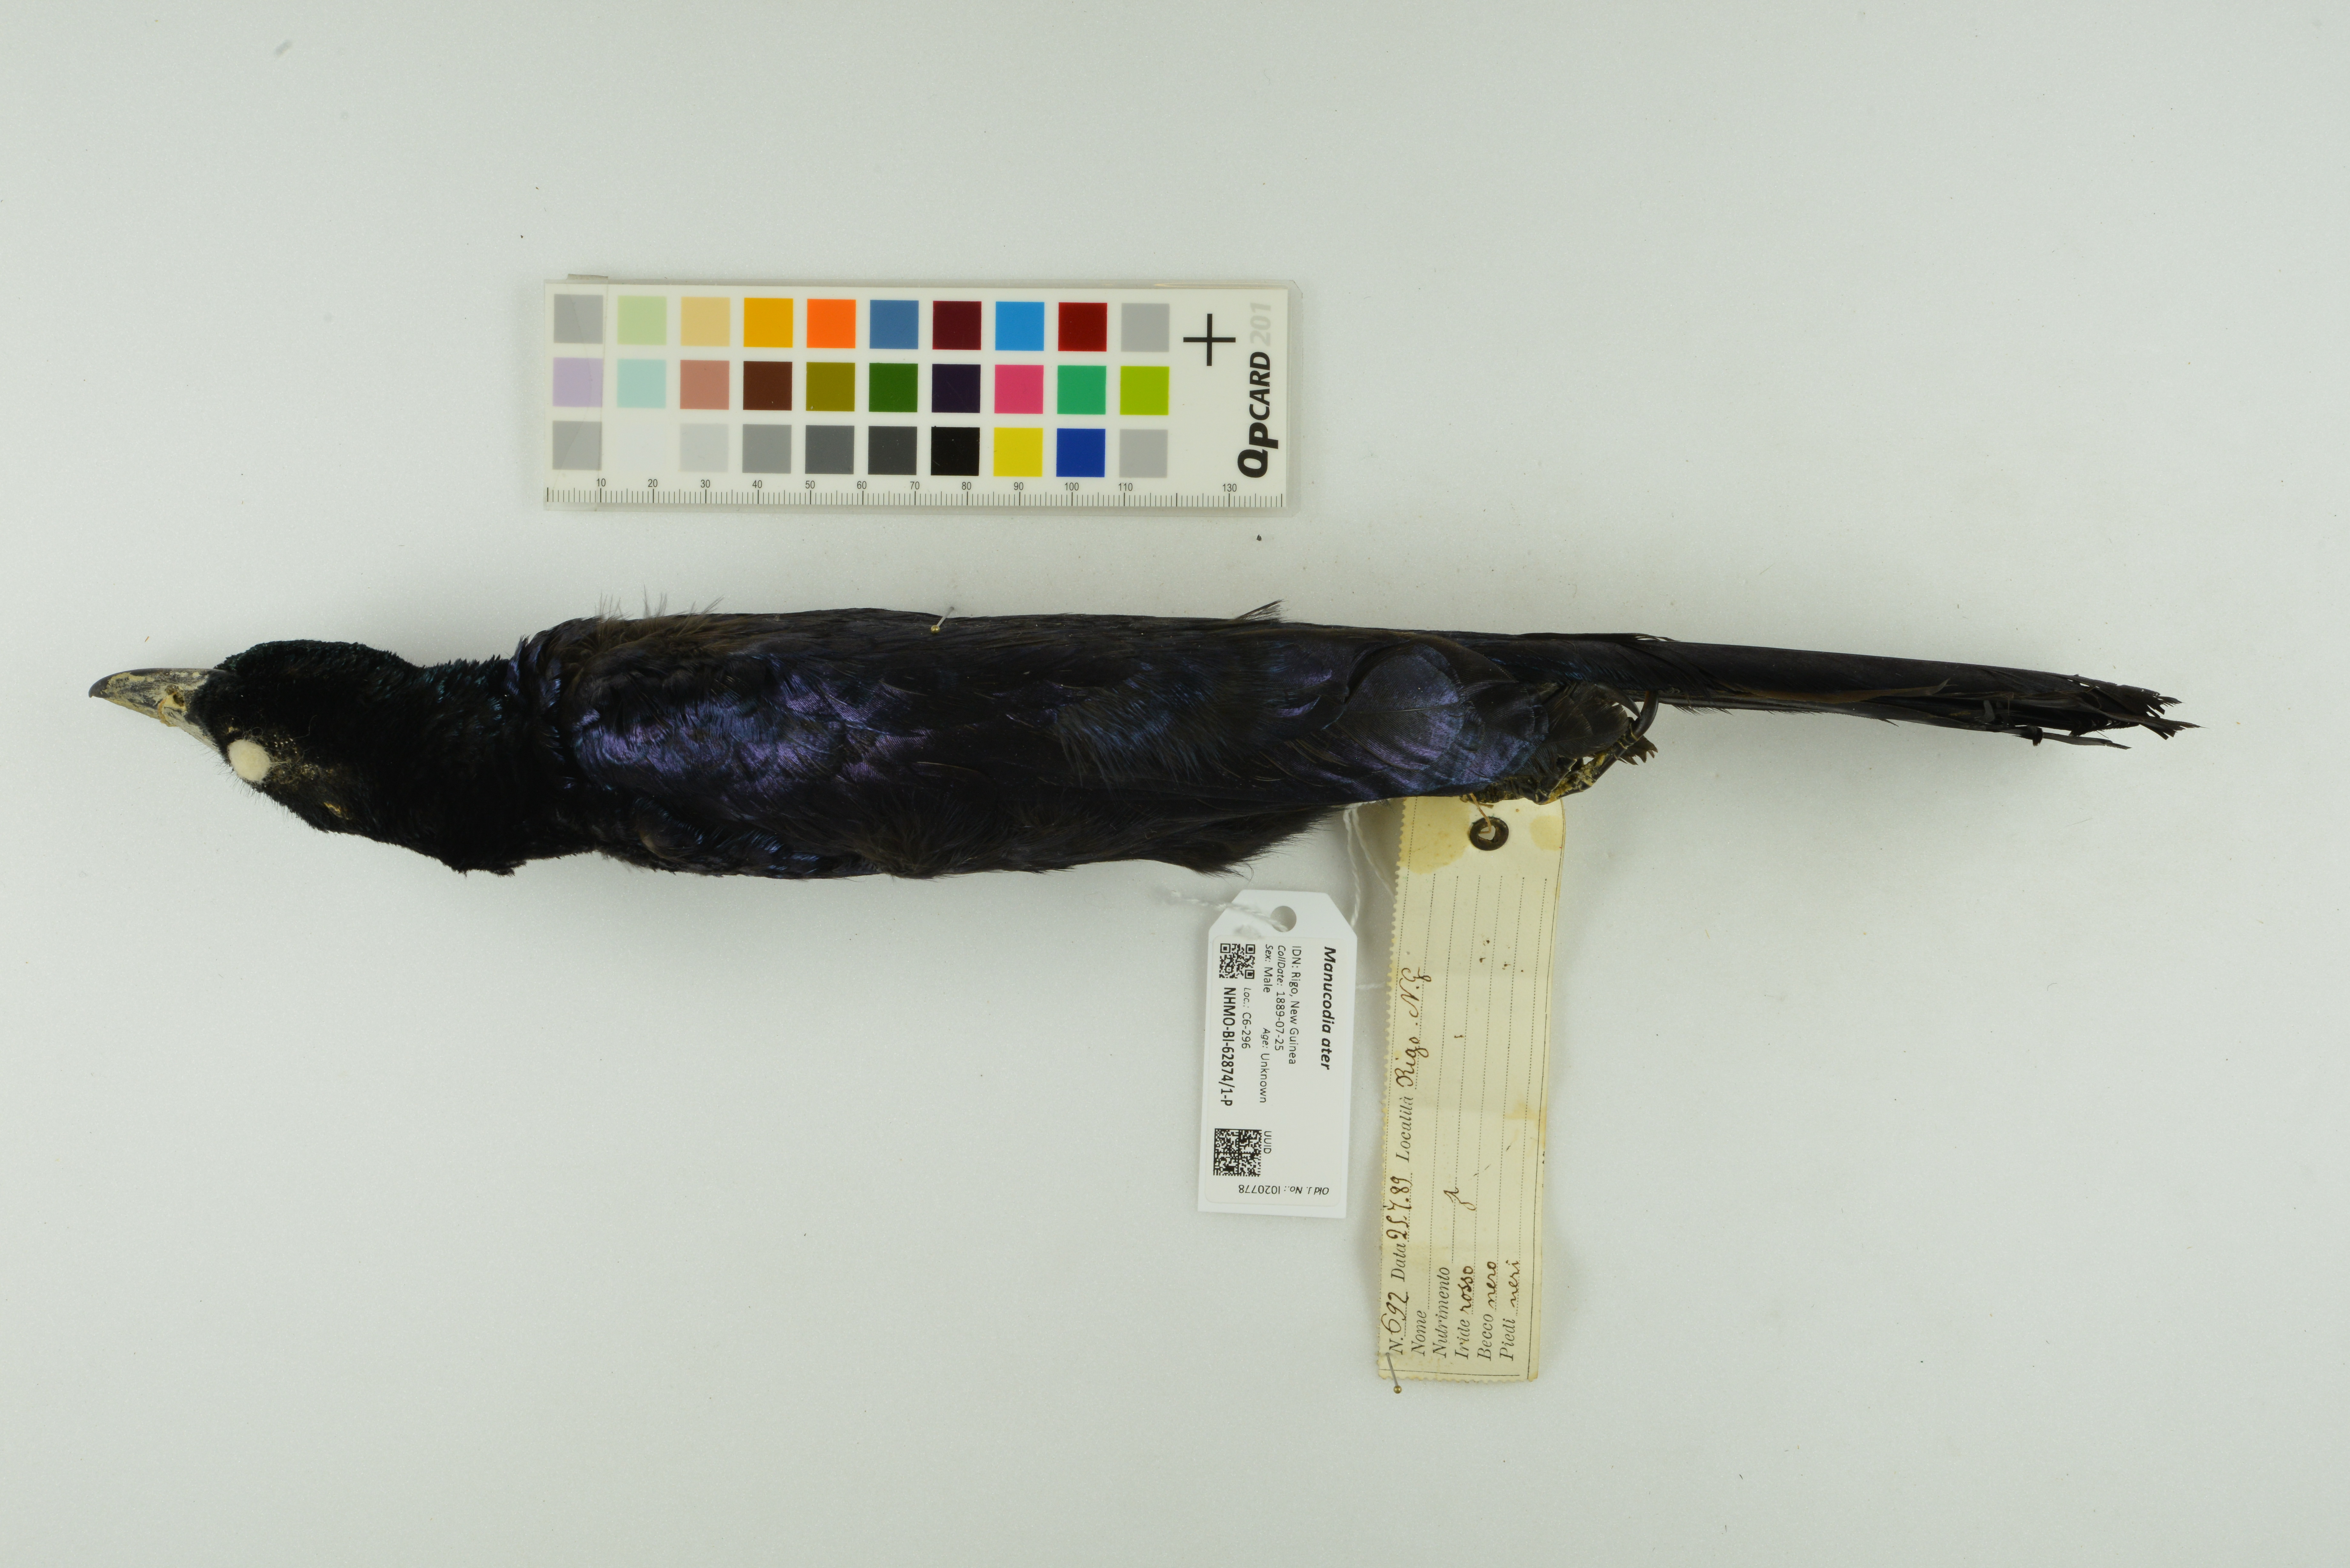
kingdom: Animalia
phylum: Chordata
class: Aves
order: Passeriformes
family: Paradisaeidae
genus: Manucodia
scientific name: Manucodia ater
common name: Glossy-mantled manucode
